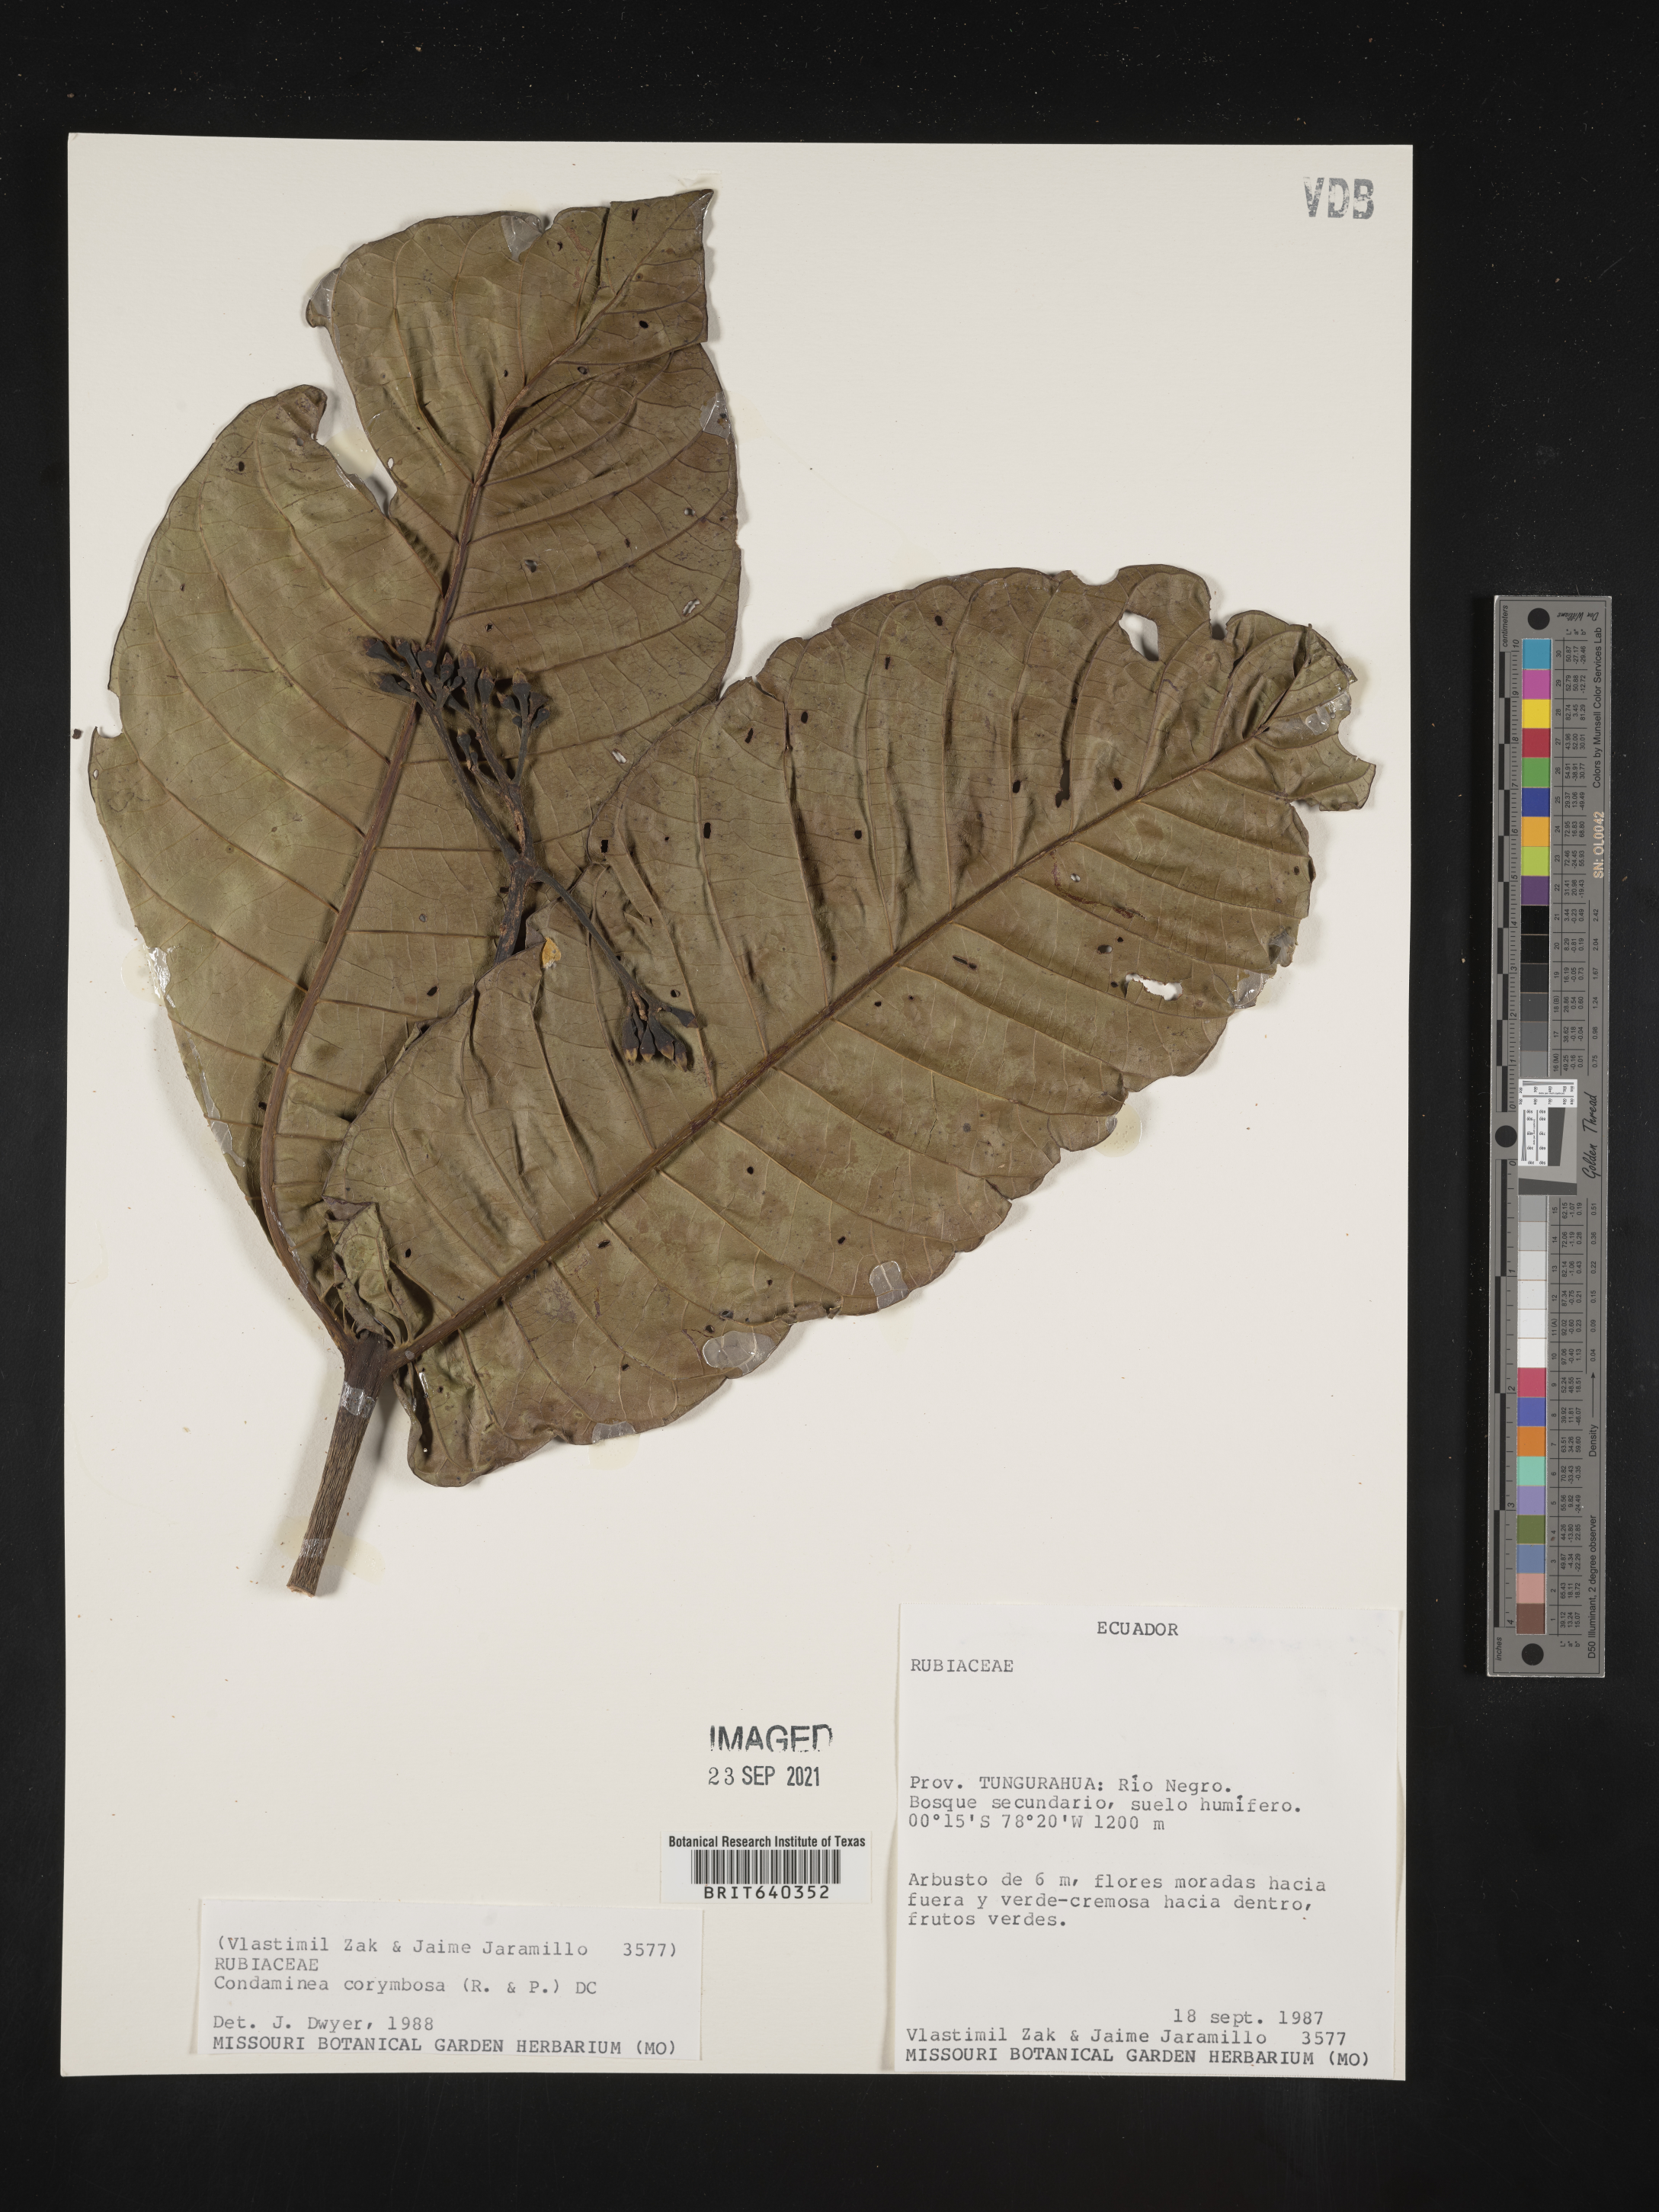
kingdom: Plantae
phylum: Tracheophyta
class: Magnoliopsida
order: Gentianales
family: Rubiaceae
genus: Condaminea
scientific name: Condaminea
